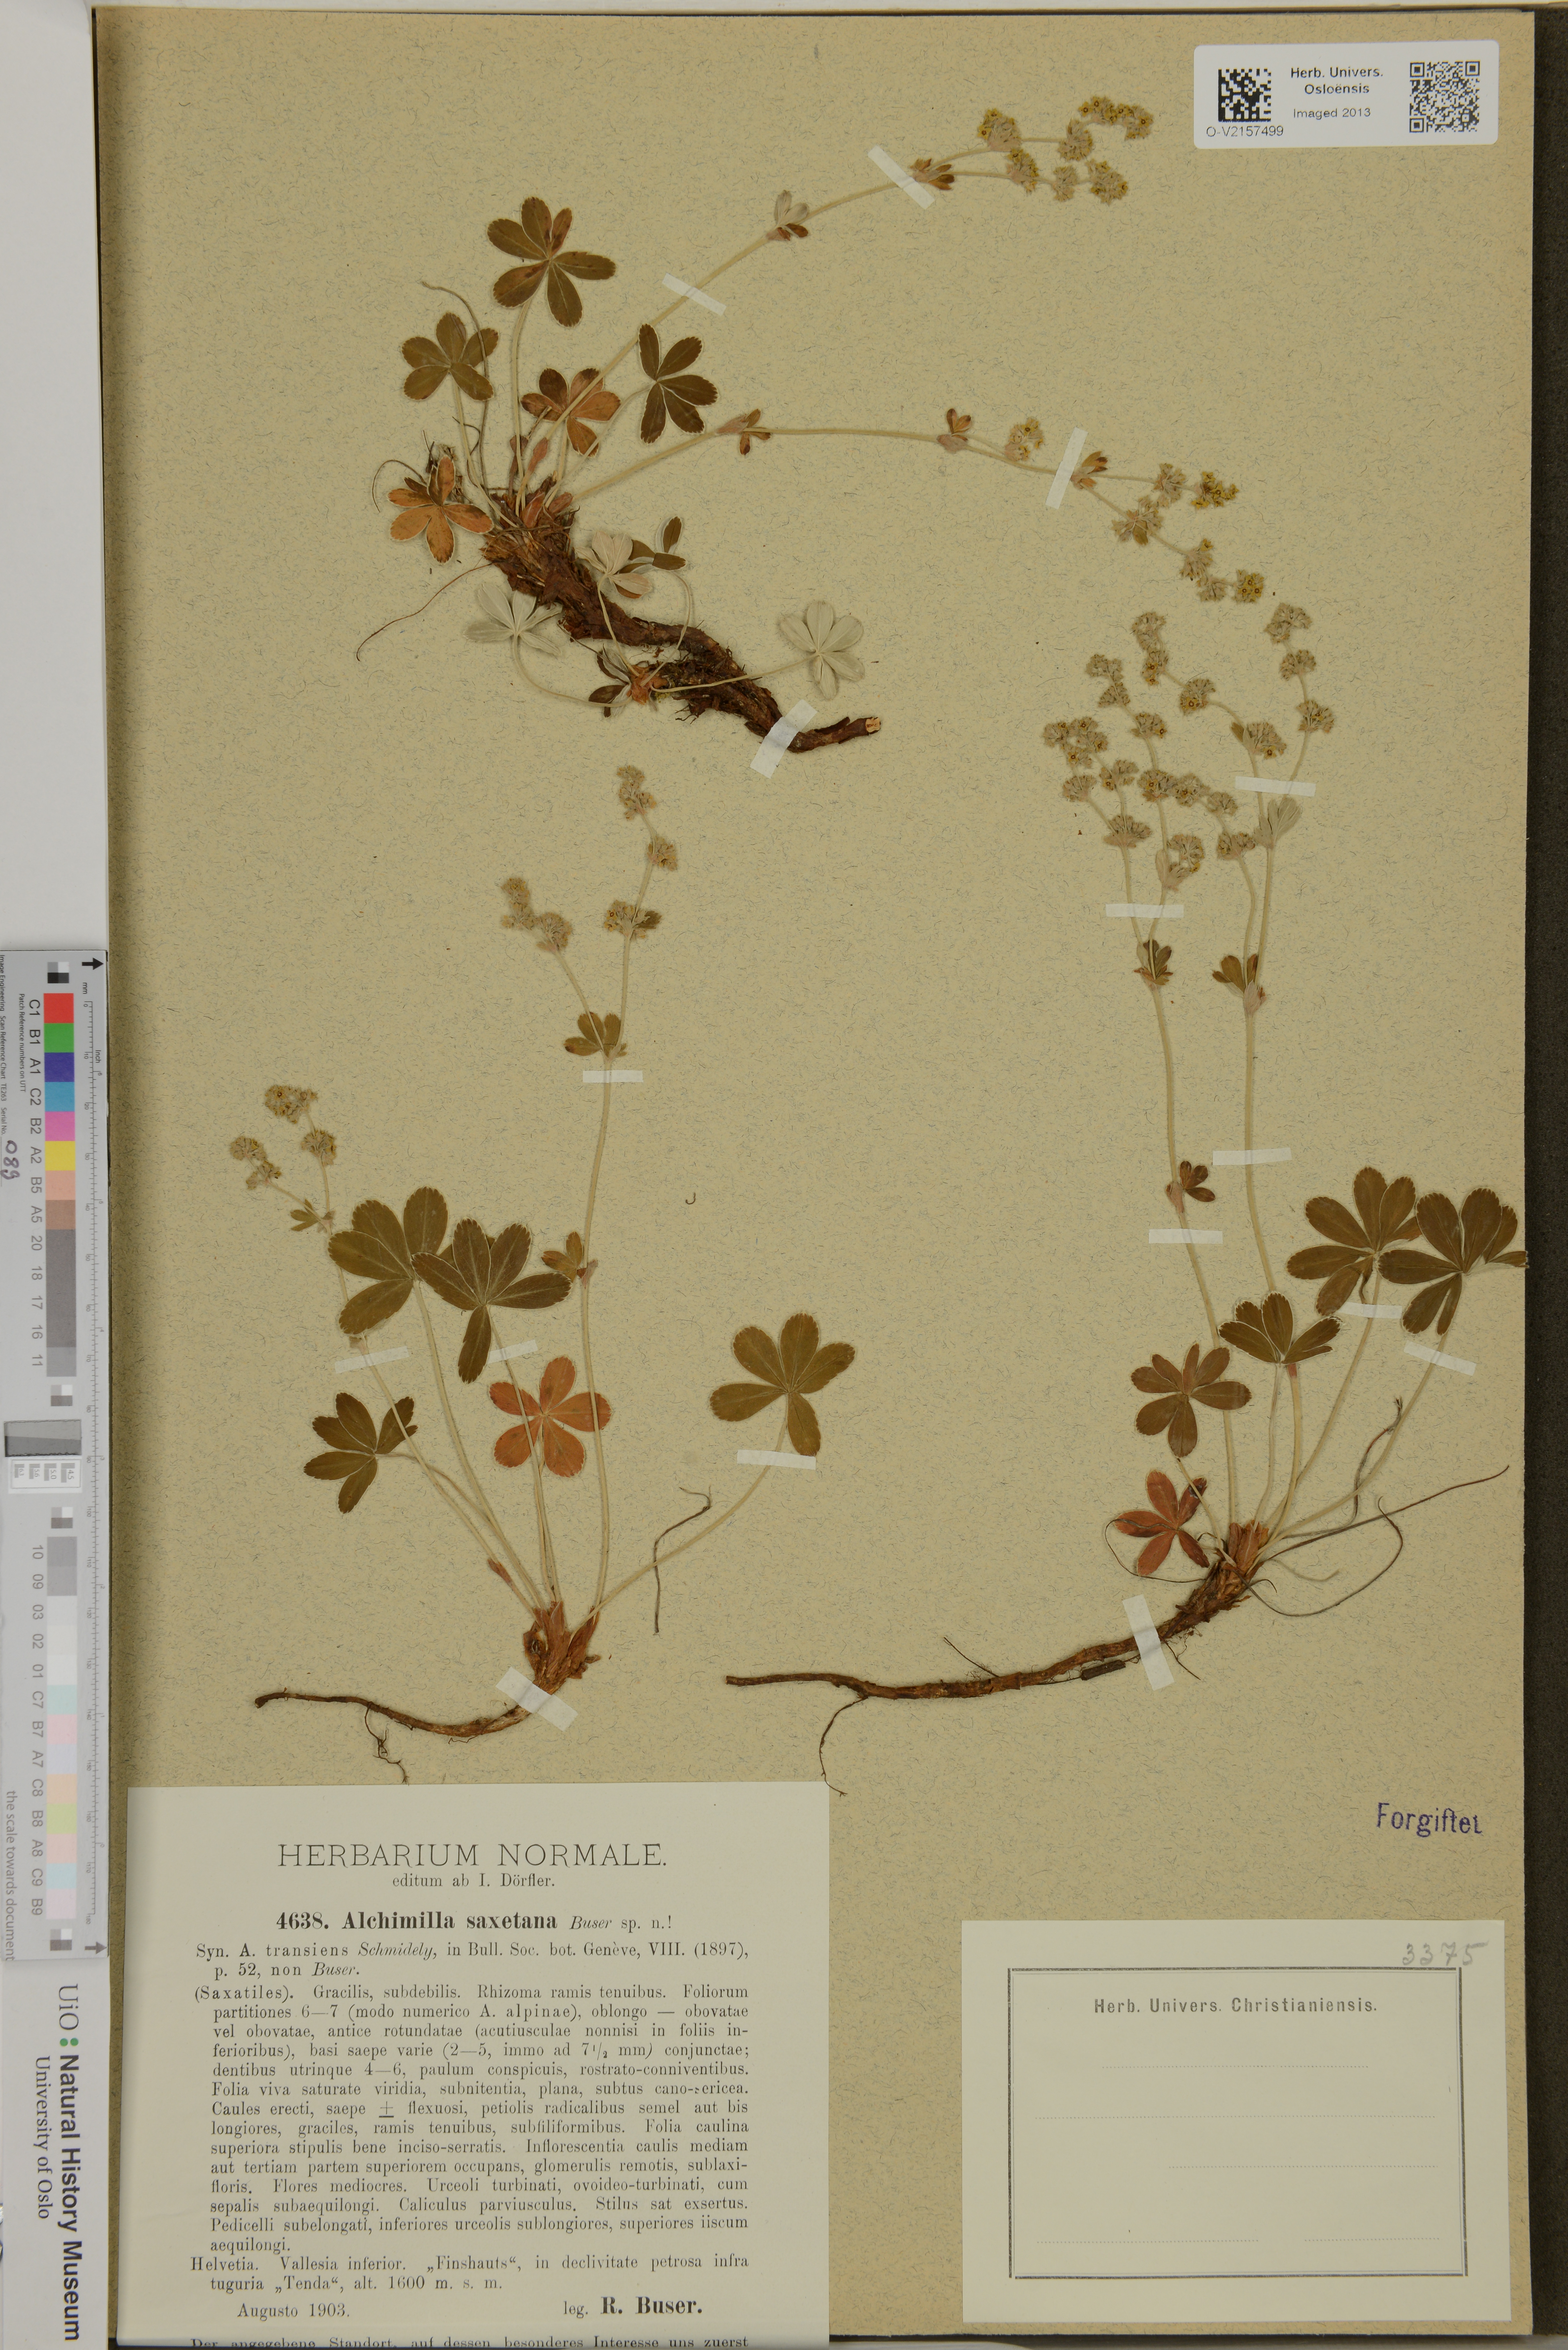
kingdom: Plantae
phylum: Tracheophyta
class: Magnoliopsida
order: Rosales
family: Rosaceae
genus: Alchemilla
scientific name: Alchemilla saxetana
